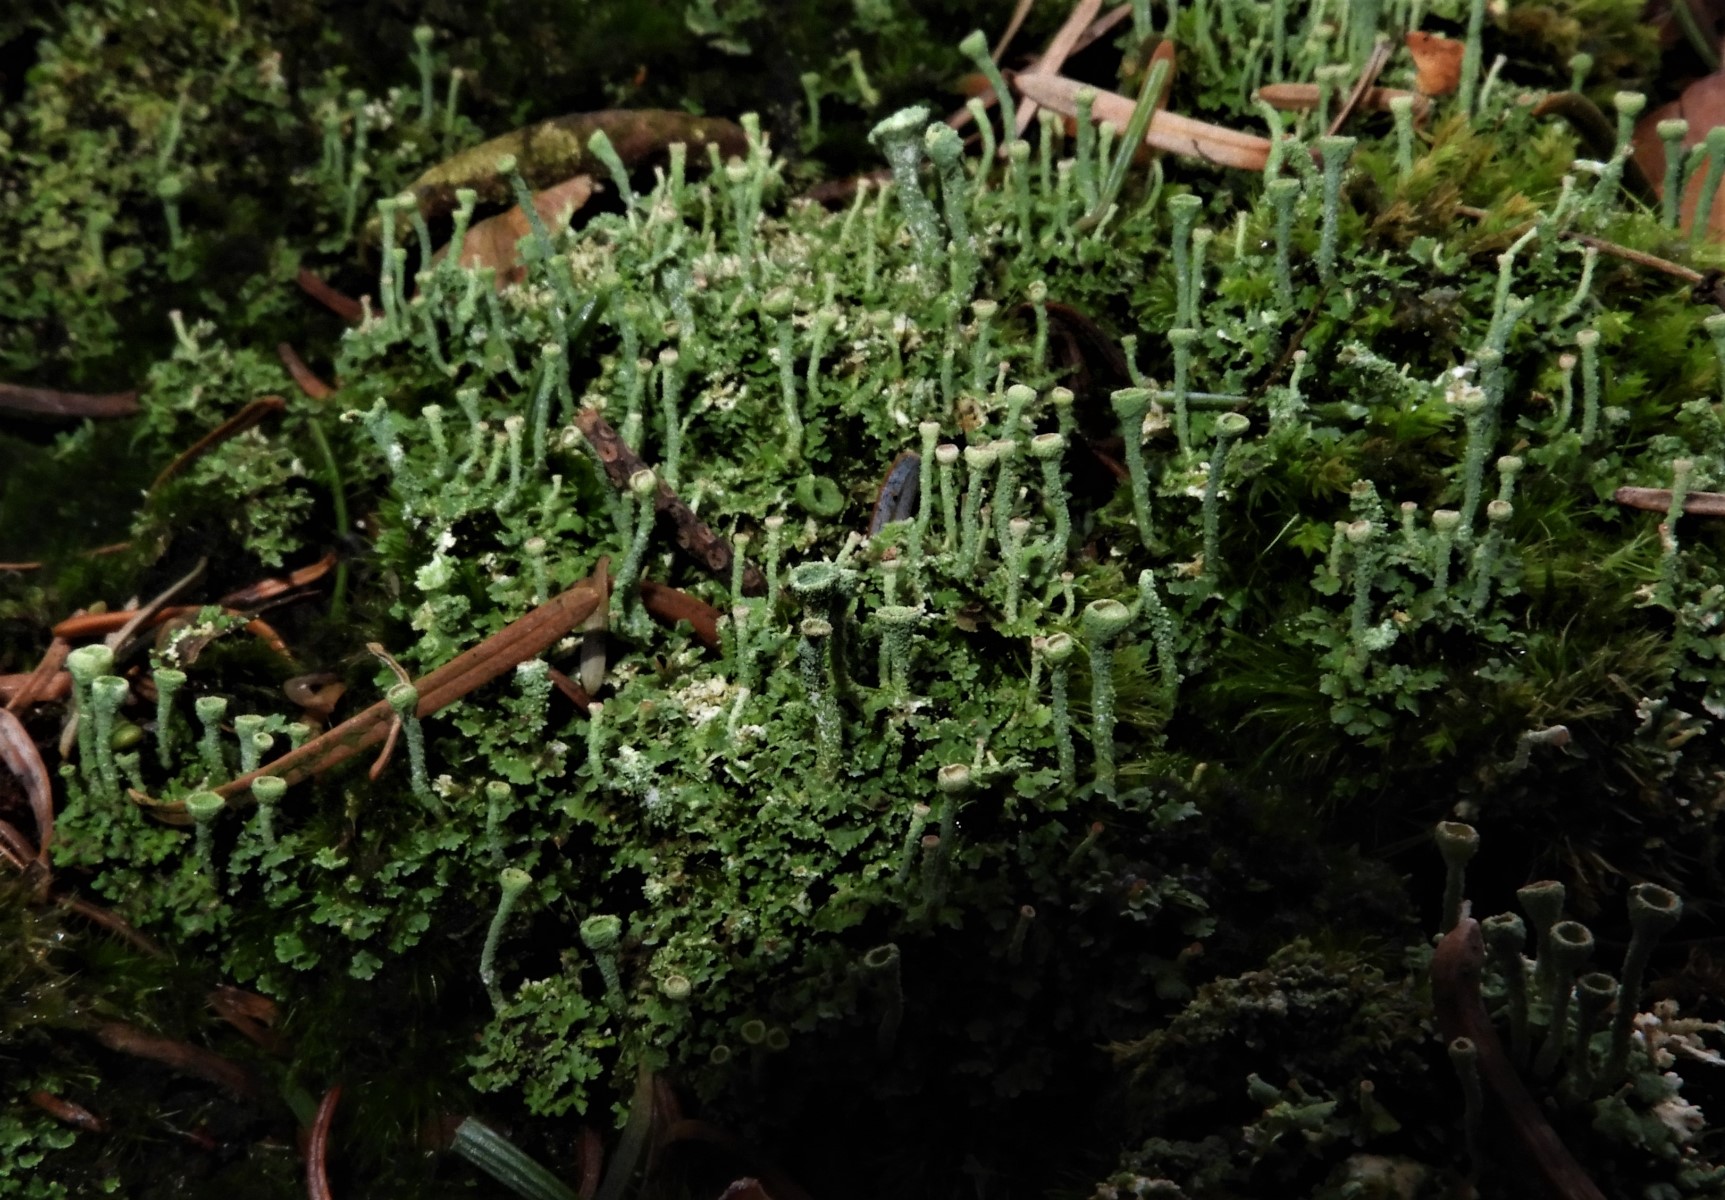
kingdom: Fungi
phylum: Ascomycota
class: Lecanoromycetes
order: Lecanorales
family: Cladoniaceae
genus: Cladonia
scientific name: Cladonia
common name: brungrøn bægerlav
